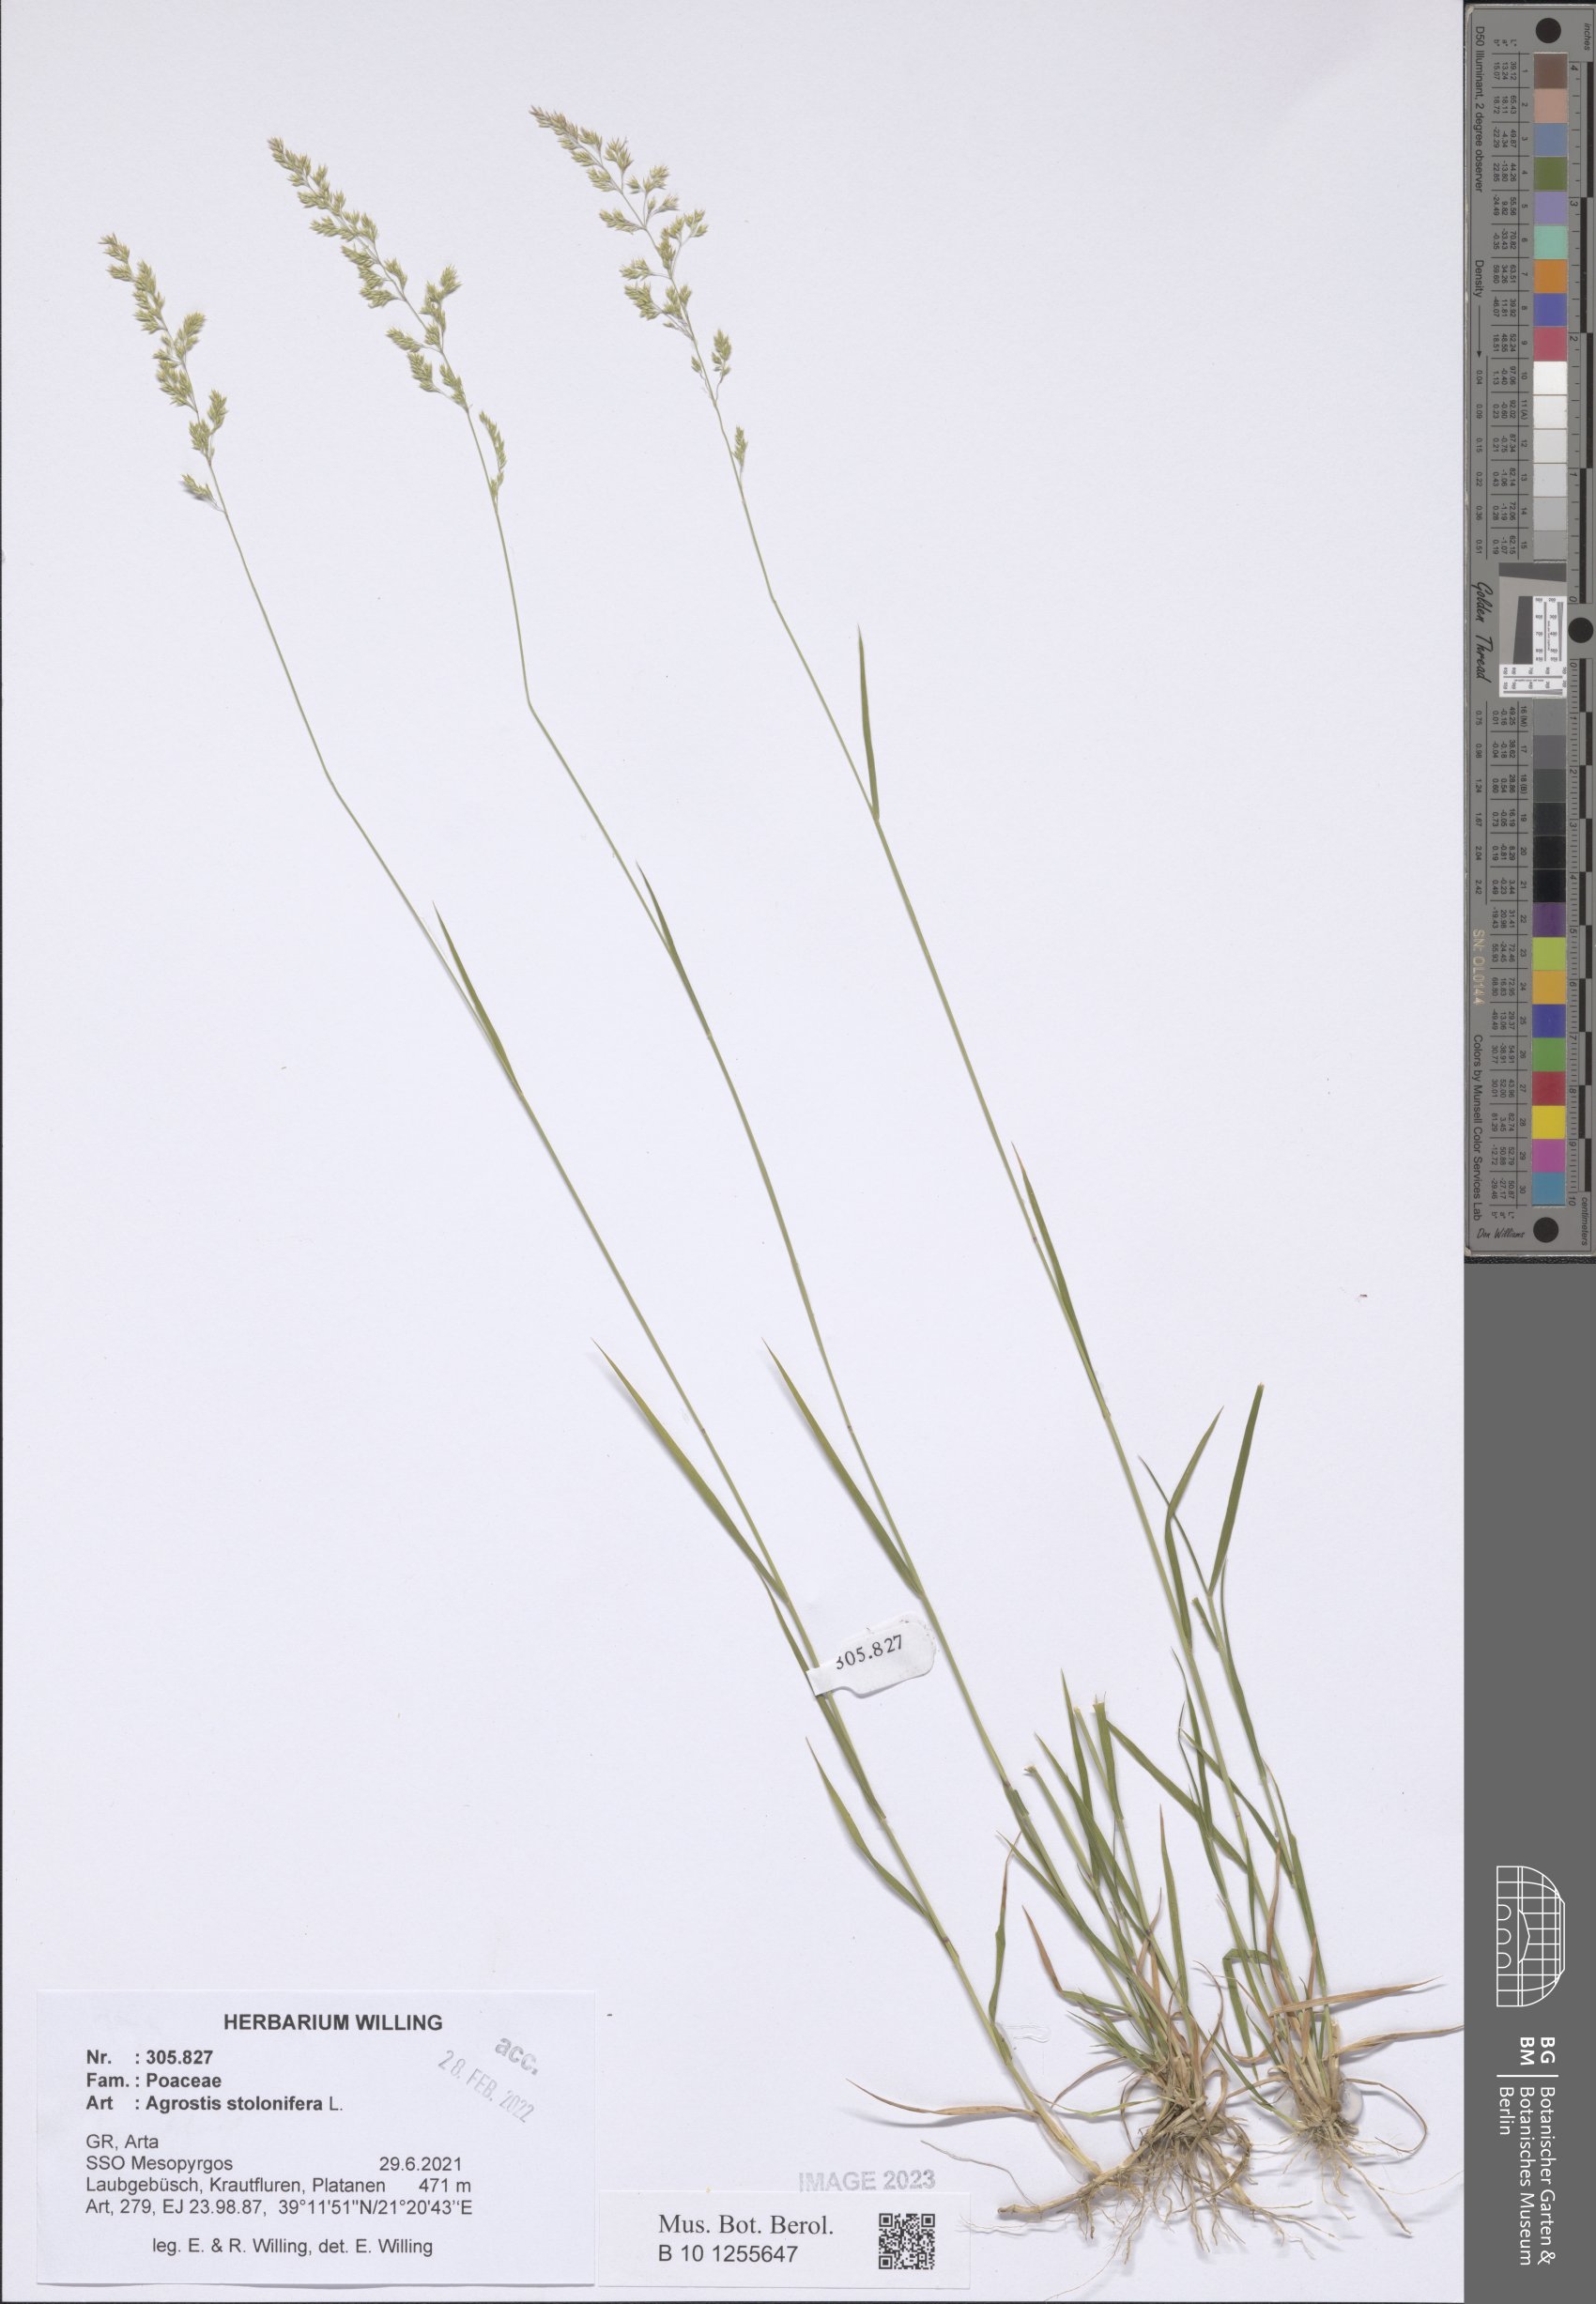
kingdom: Plantae
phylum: Tracheophyta
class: Liliopsida
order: Poales
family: Poaceae
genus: Agrostis
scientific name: Agrostis stolonifera
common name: Creeping bentgrass
